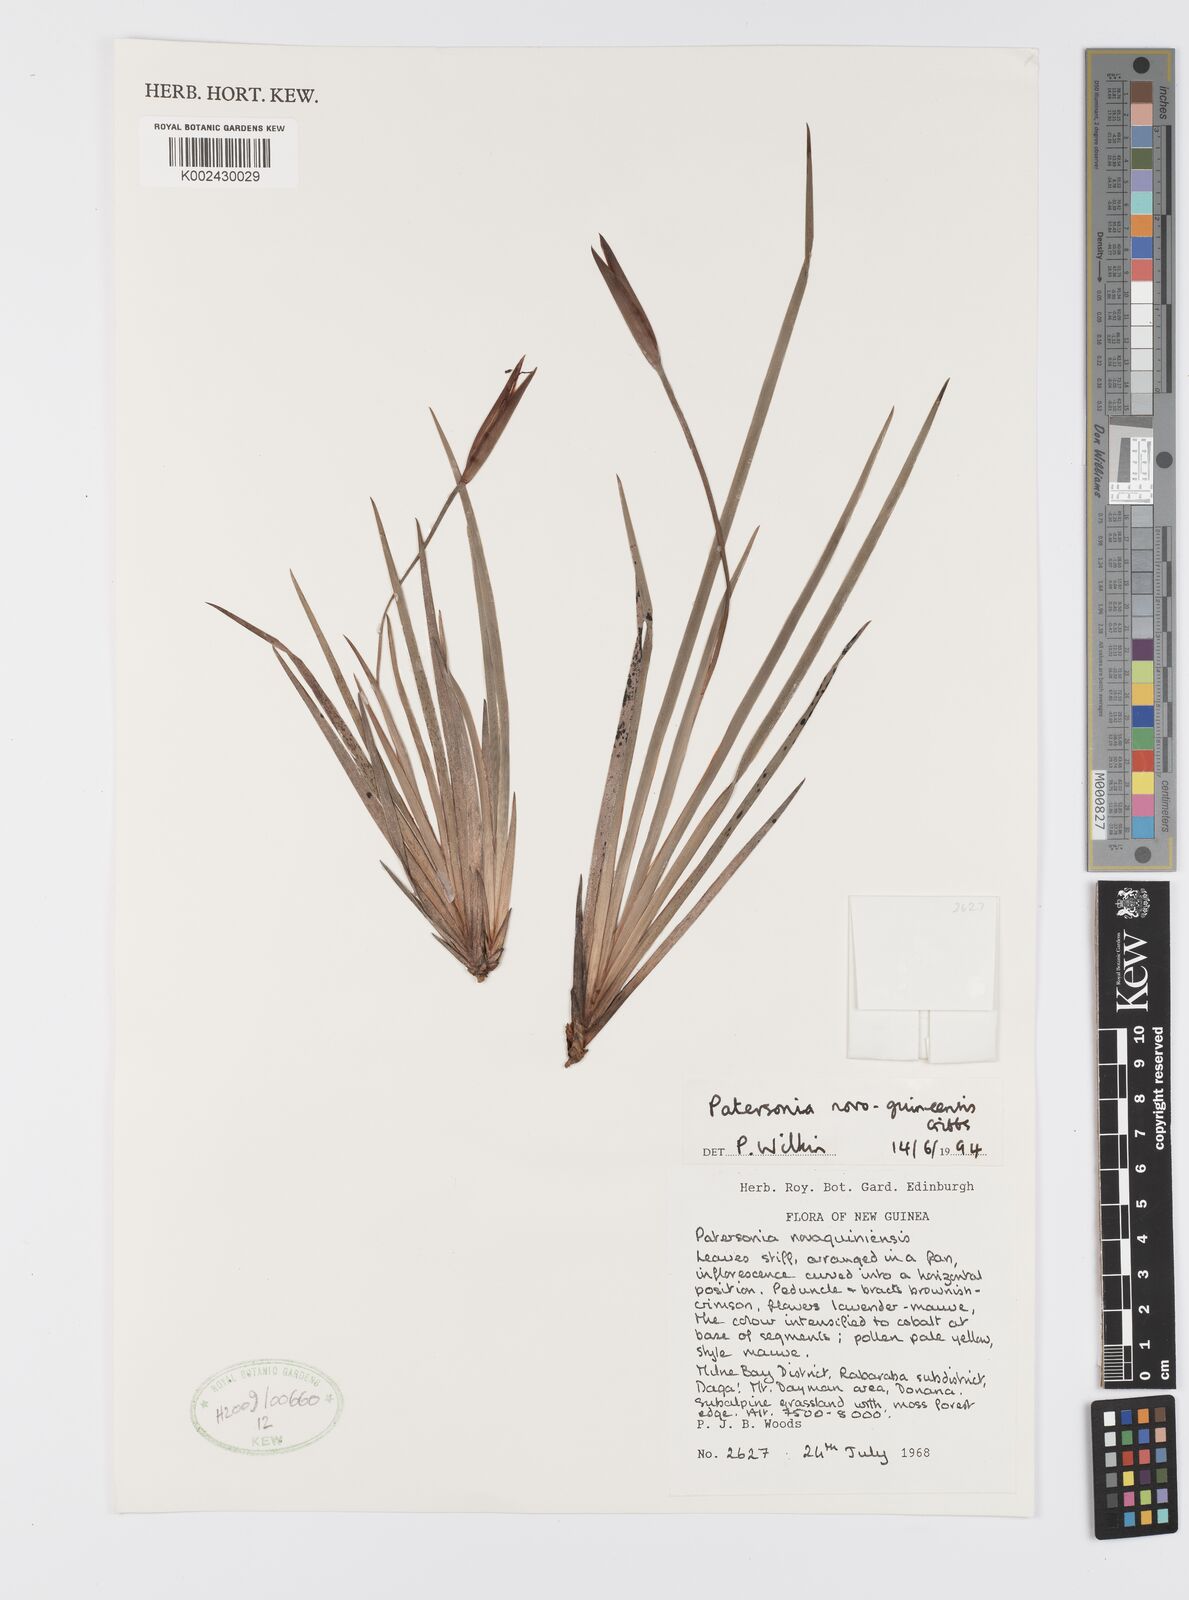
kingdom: Plantae
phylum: Tracheophyta
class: Liliopsida
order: Asparagales
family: Iridaceae
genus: Patersonia
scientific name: Patersonia novoguineensis
